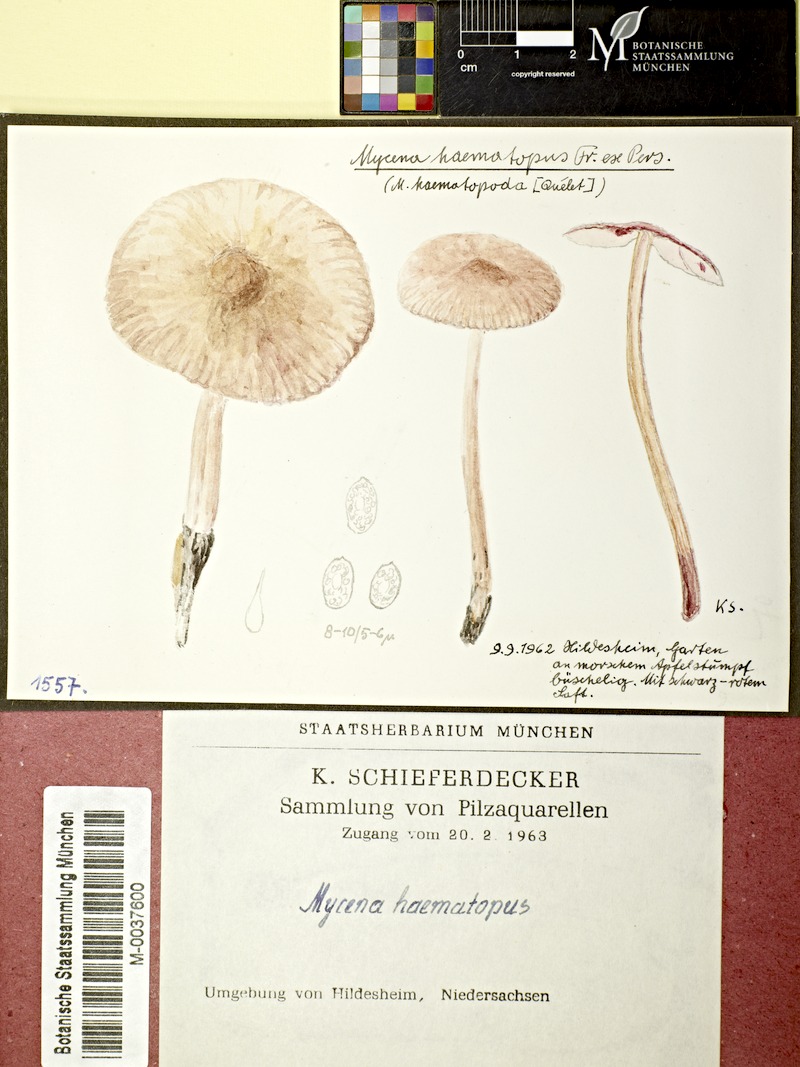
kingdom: Fungi
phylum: Basidiomycota
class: Agaricomycetes
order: Agaricales
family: Mycenaceae
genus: Mycena
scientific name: Mycena haematopus
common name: Burgundydrop bonnet
